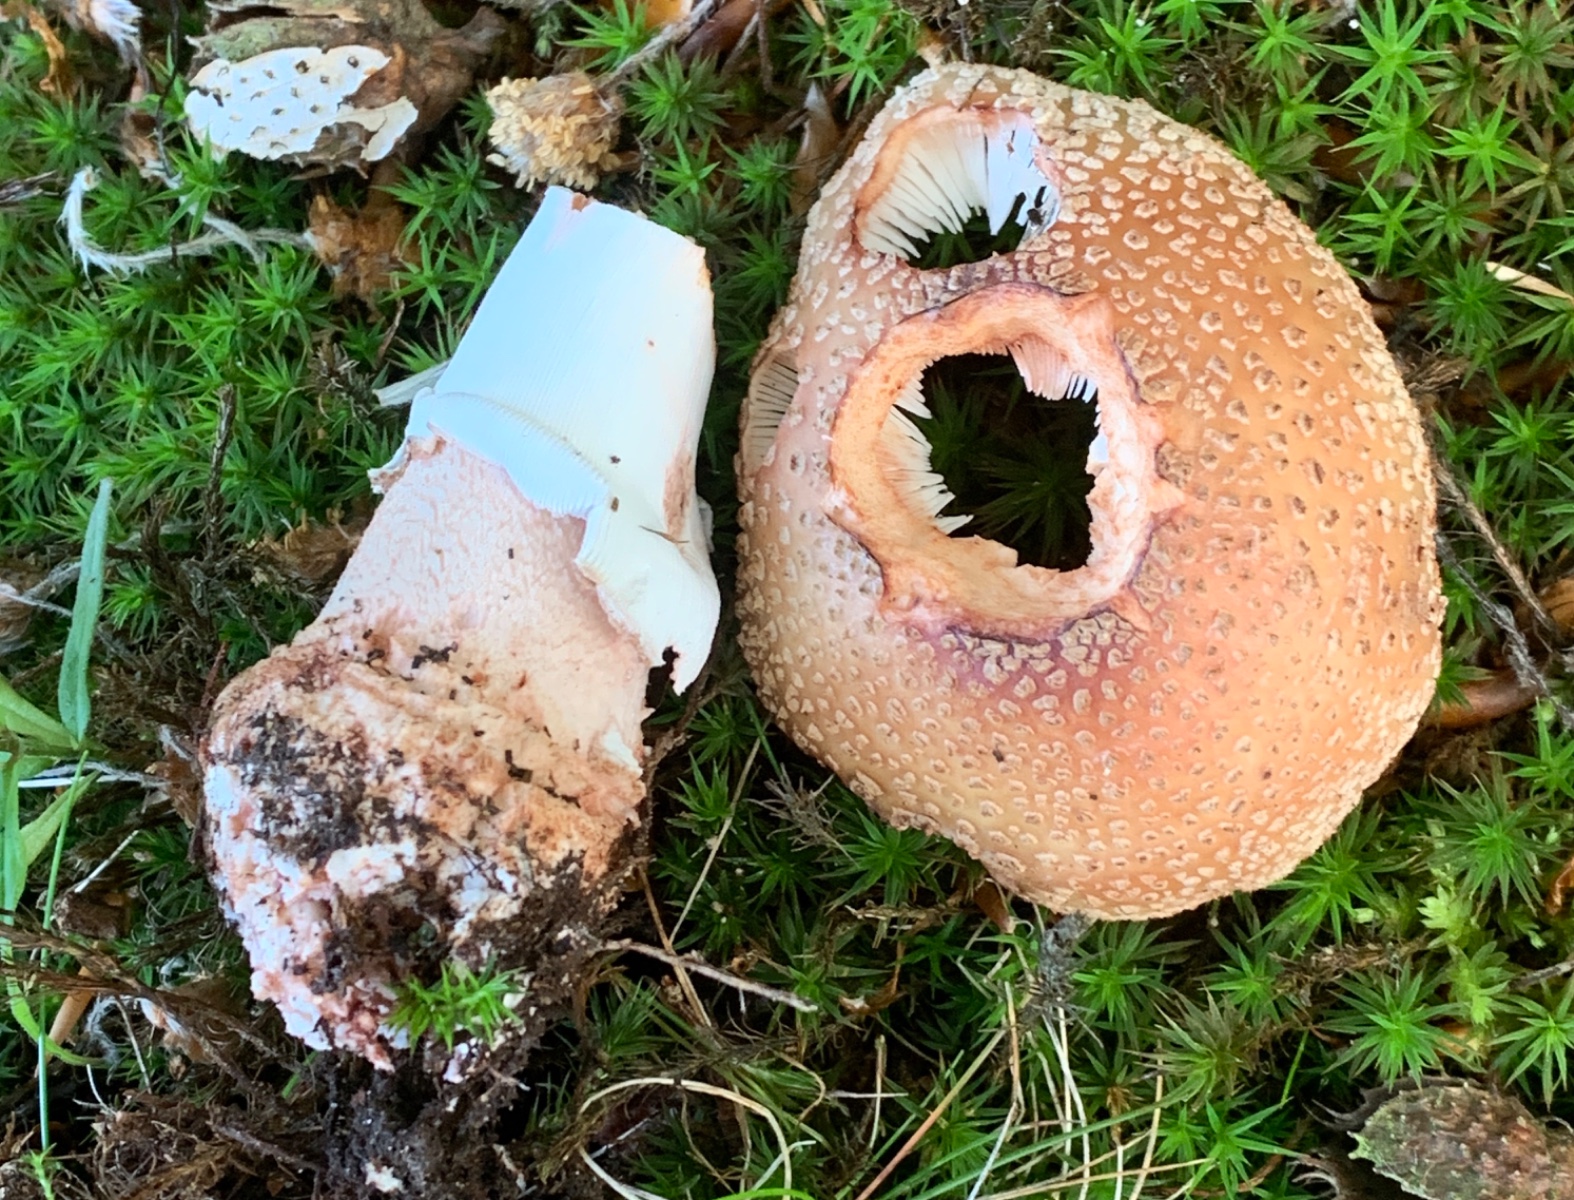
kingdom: Fungi
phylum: Basidiomycota
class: Agaricomycetes
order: Agaricales
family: Amanitaceae
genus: Amanita
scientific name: Amanita rubescens
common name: rødmende fluesvamp
